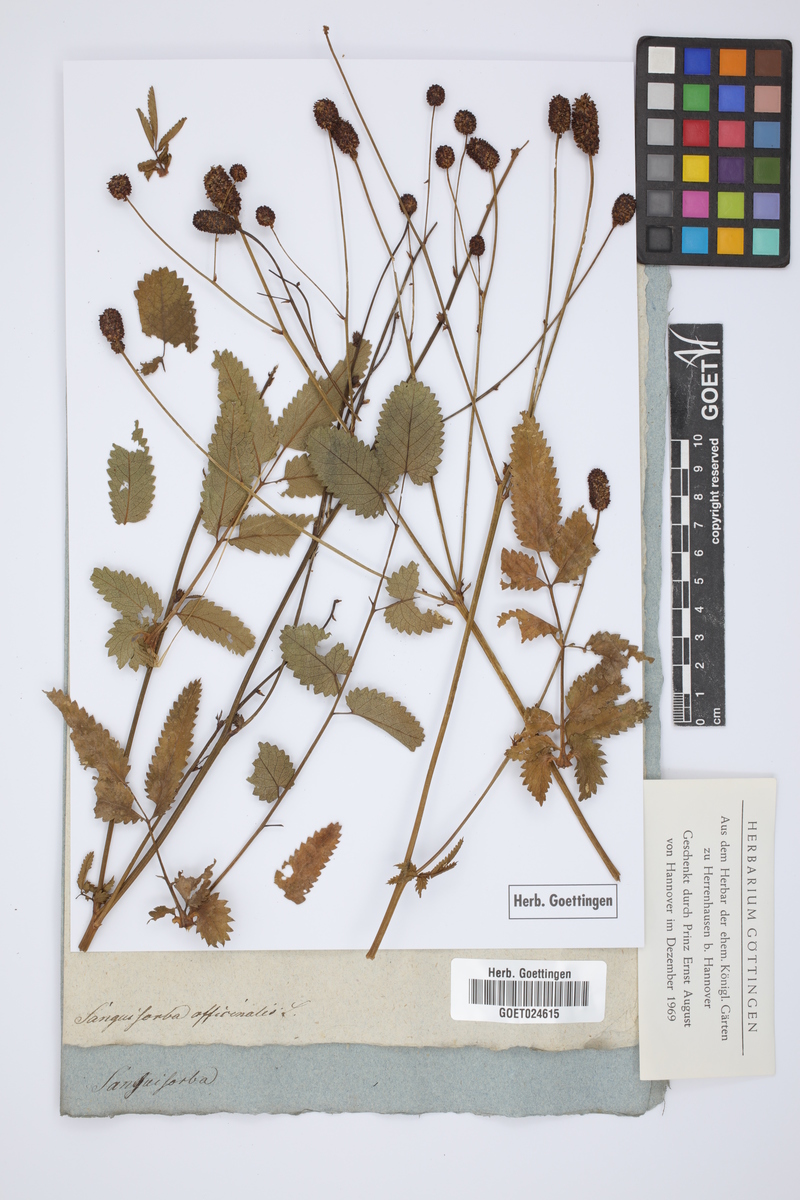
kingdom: Plantae
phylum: Tracheophyta
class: Magnoliopsida
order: Rosales
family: Rosaceae
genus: Sanguisorba
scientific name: Sanguisorba officinalis
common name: Great burnet
